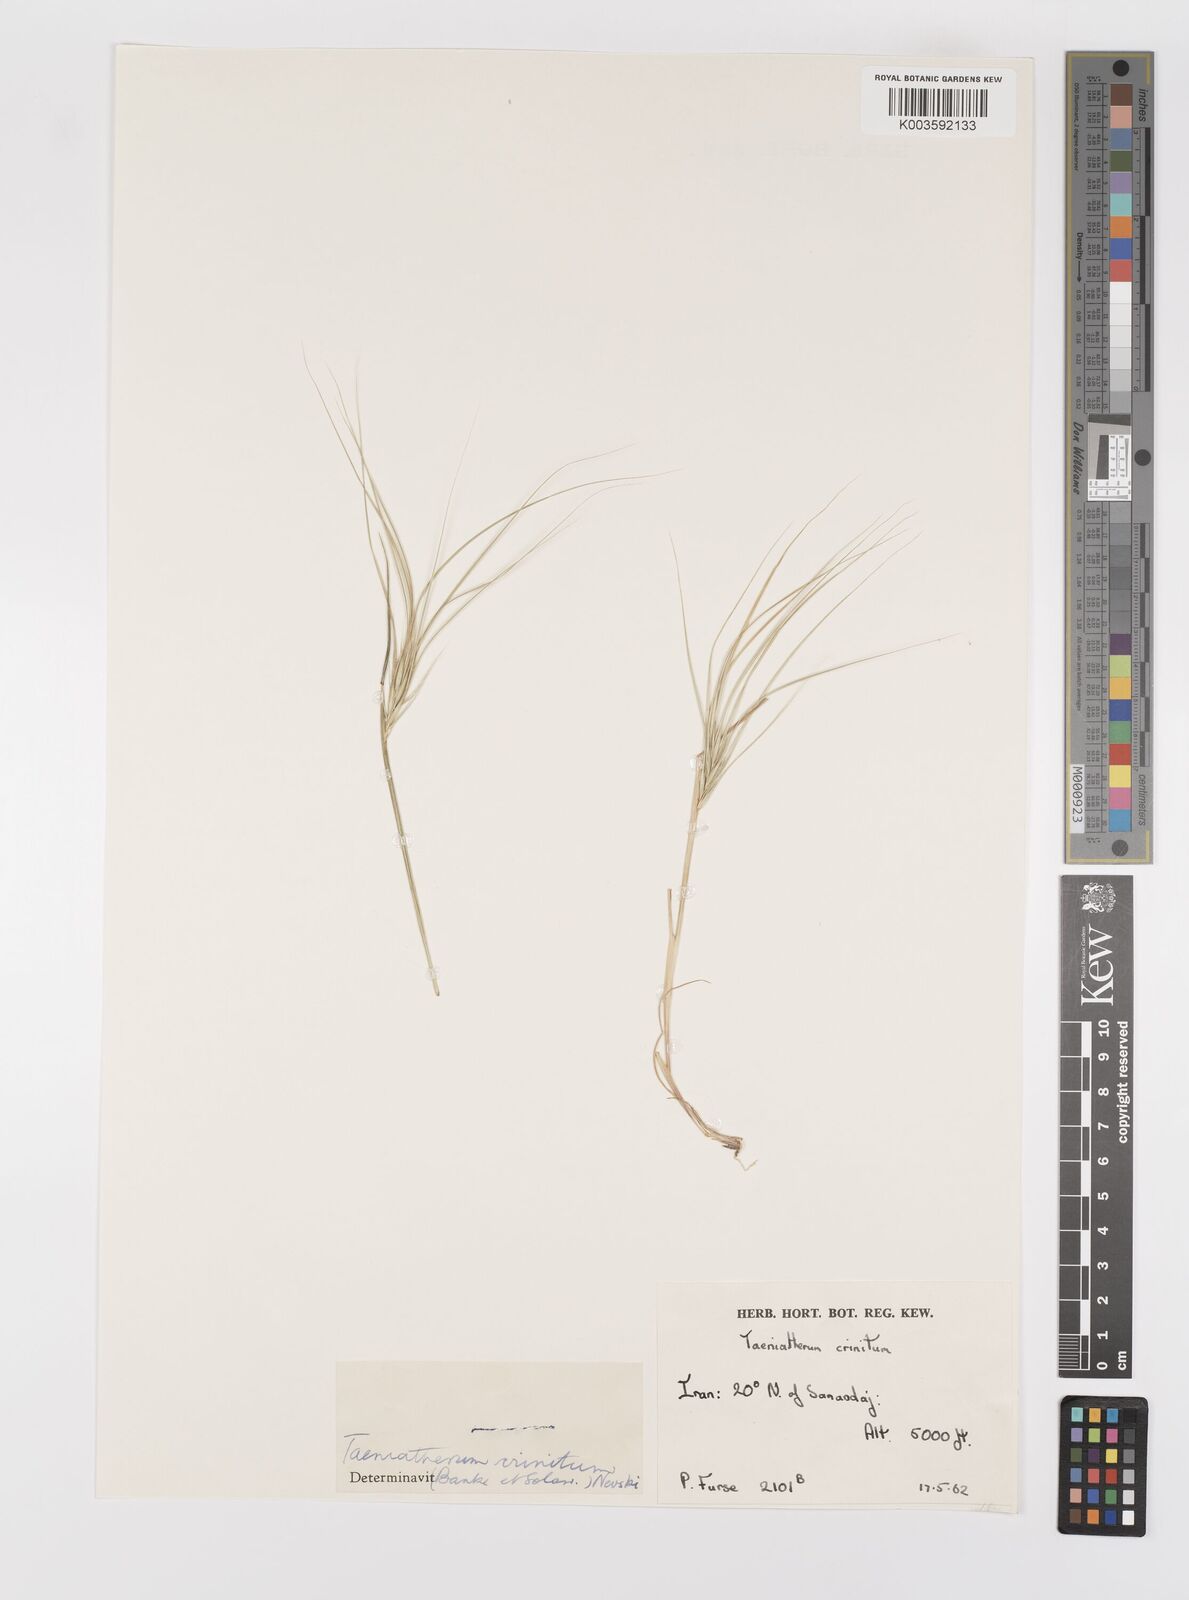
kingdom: Plantae
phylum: Tracheophyta
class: Liliopsida
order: Poales
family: Poaceae
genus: Taeniatherum
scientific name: Taeniatherum caput-medusae
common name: Medusahead
